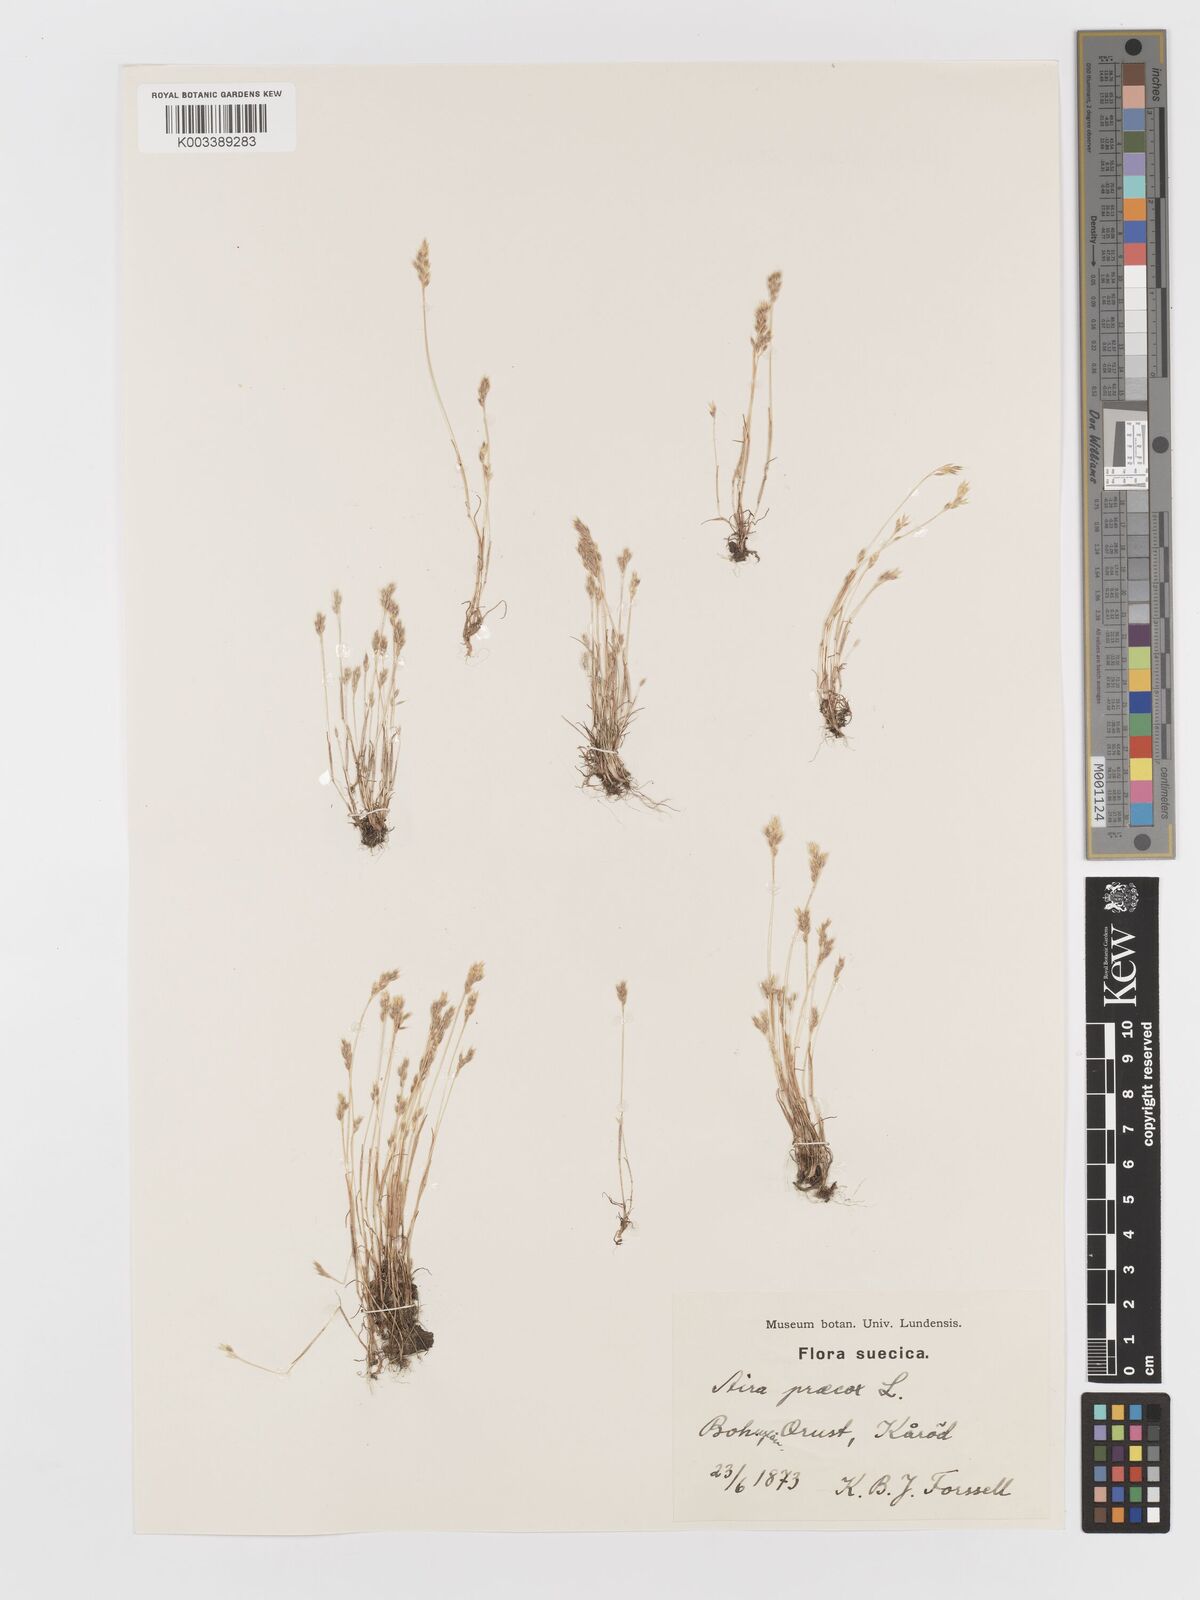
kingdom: Plantae
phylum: Tracheophyta
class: Liliopsida
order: Poales
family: Poaceae
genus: Aira
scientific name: Aira praecox
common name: Early hair-grass
